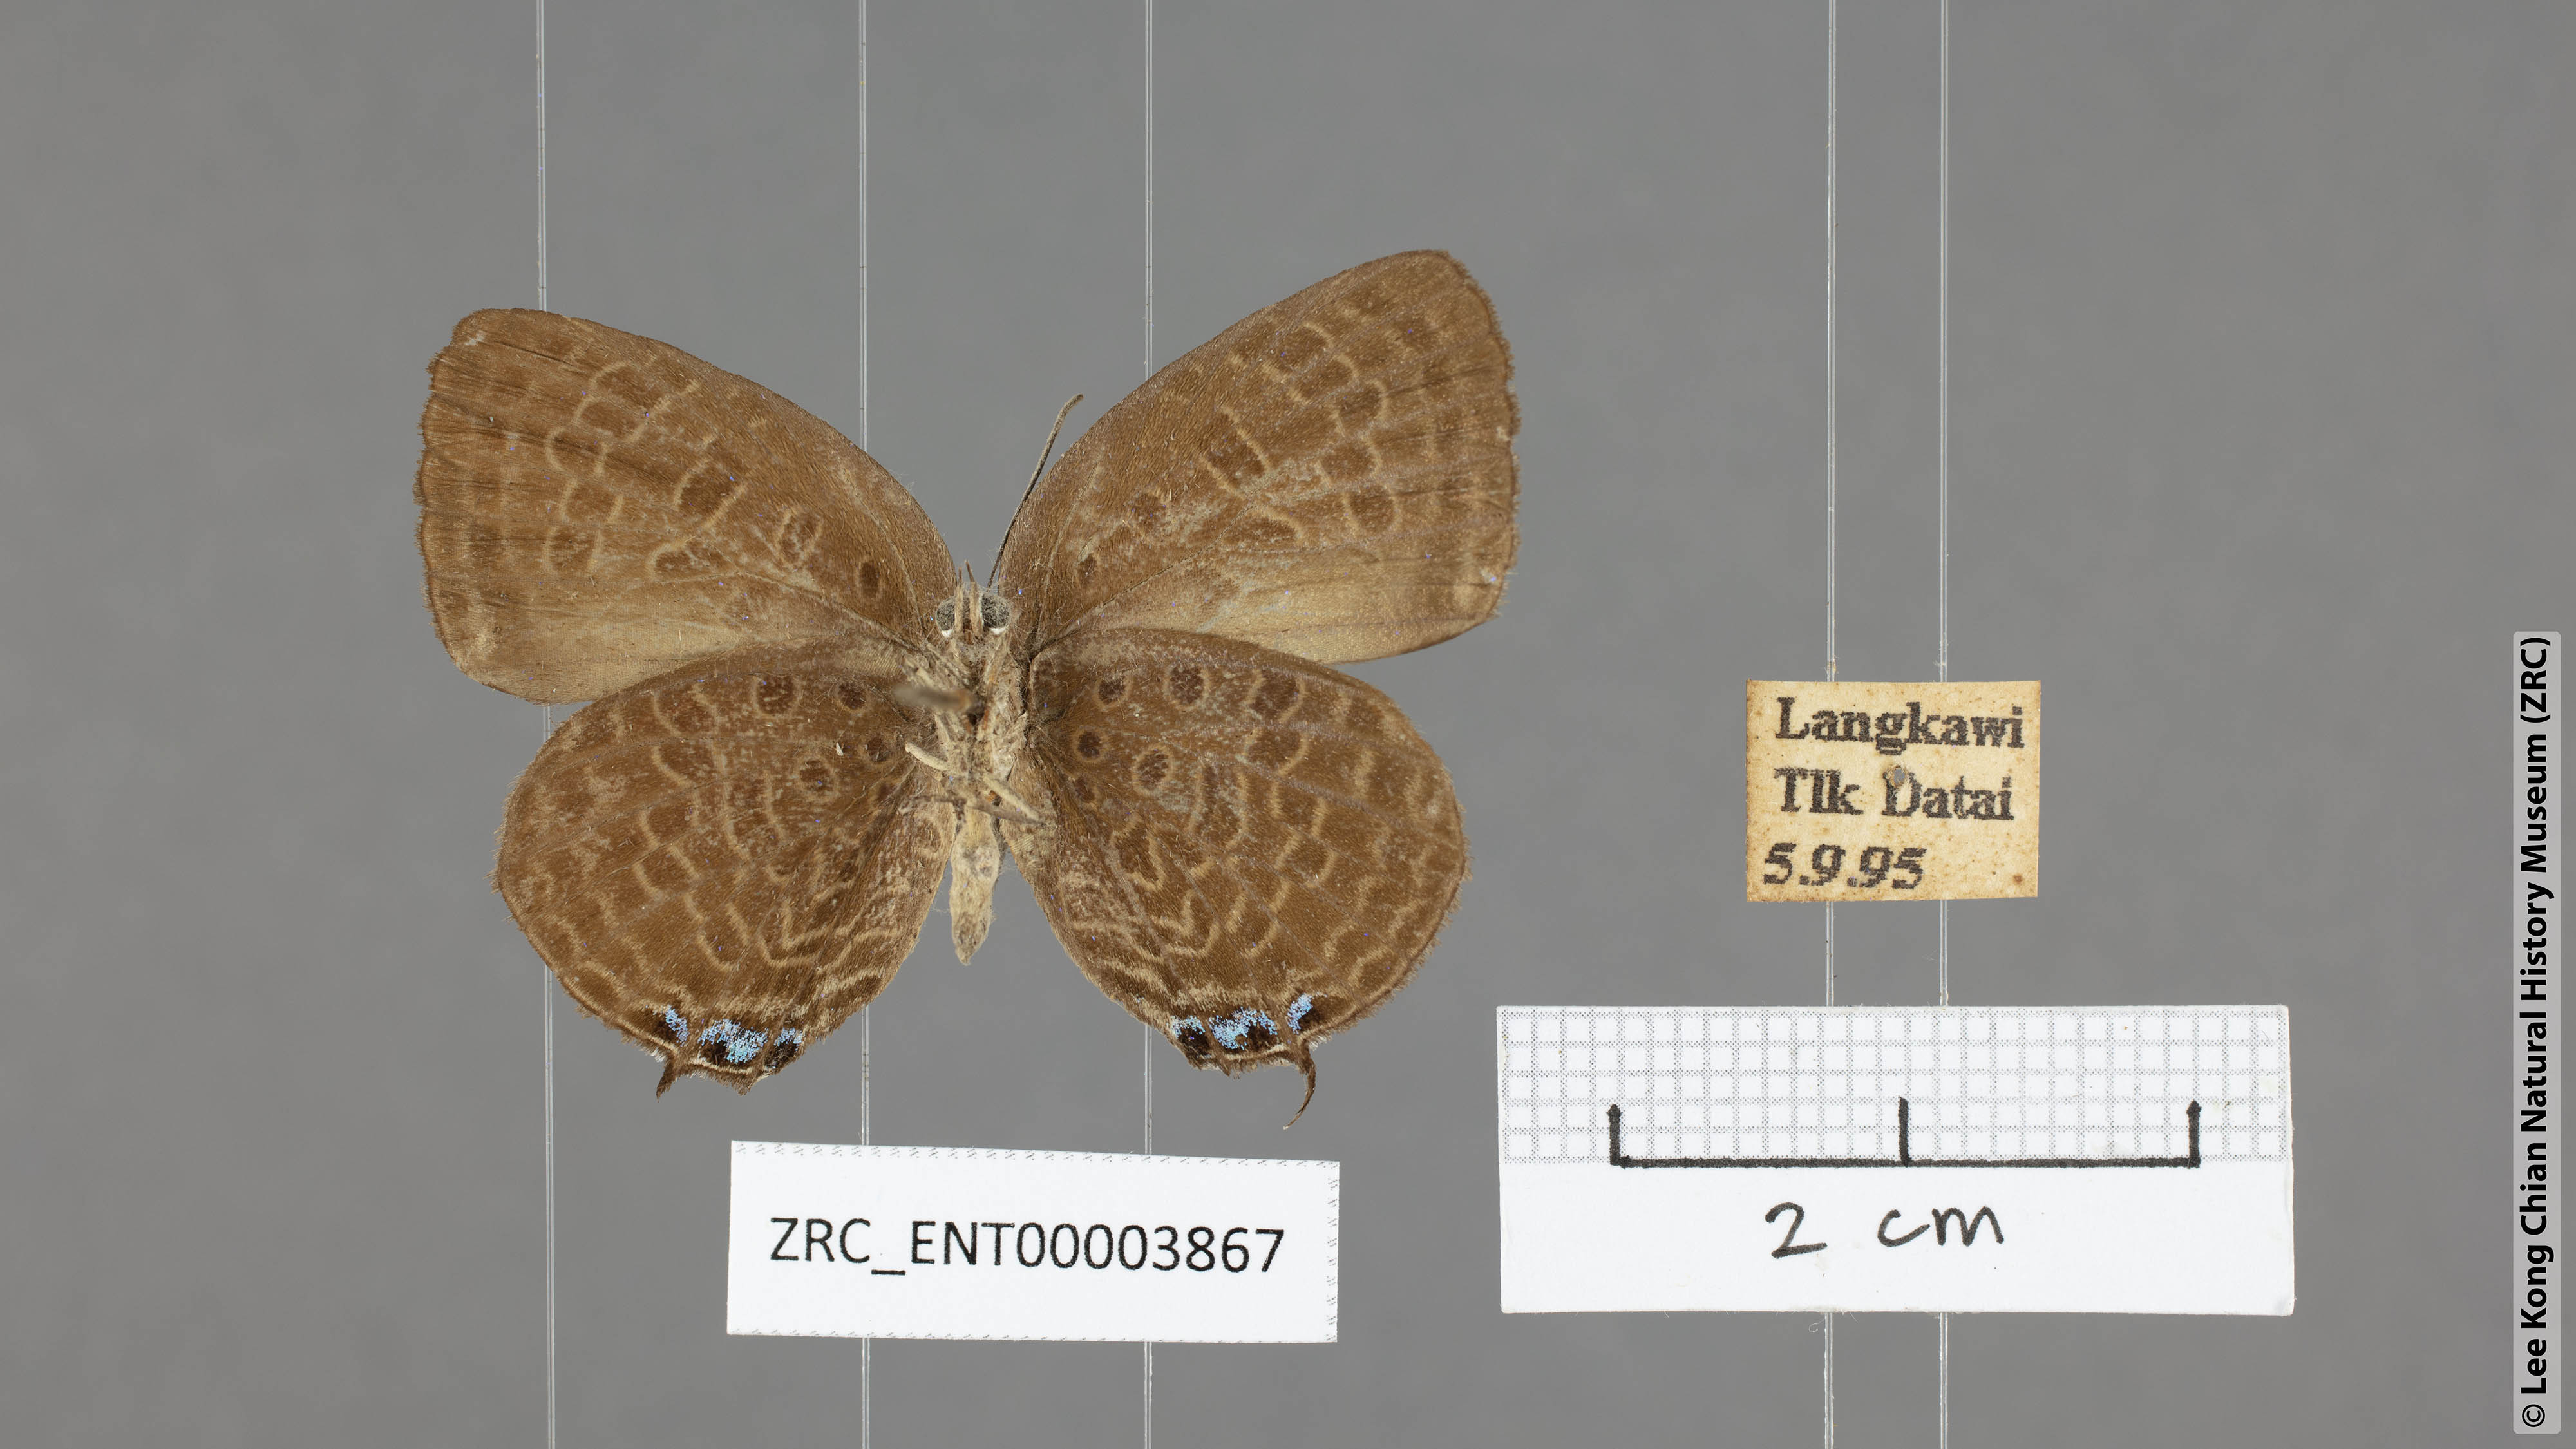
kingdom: Animalia
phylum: Arthropoda
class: Insecta
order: Lepidoptera
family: Lycaenidae
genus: Arhopala
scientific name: Arhopala atosia
